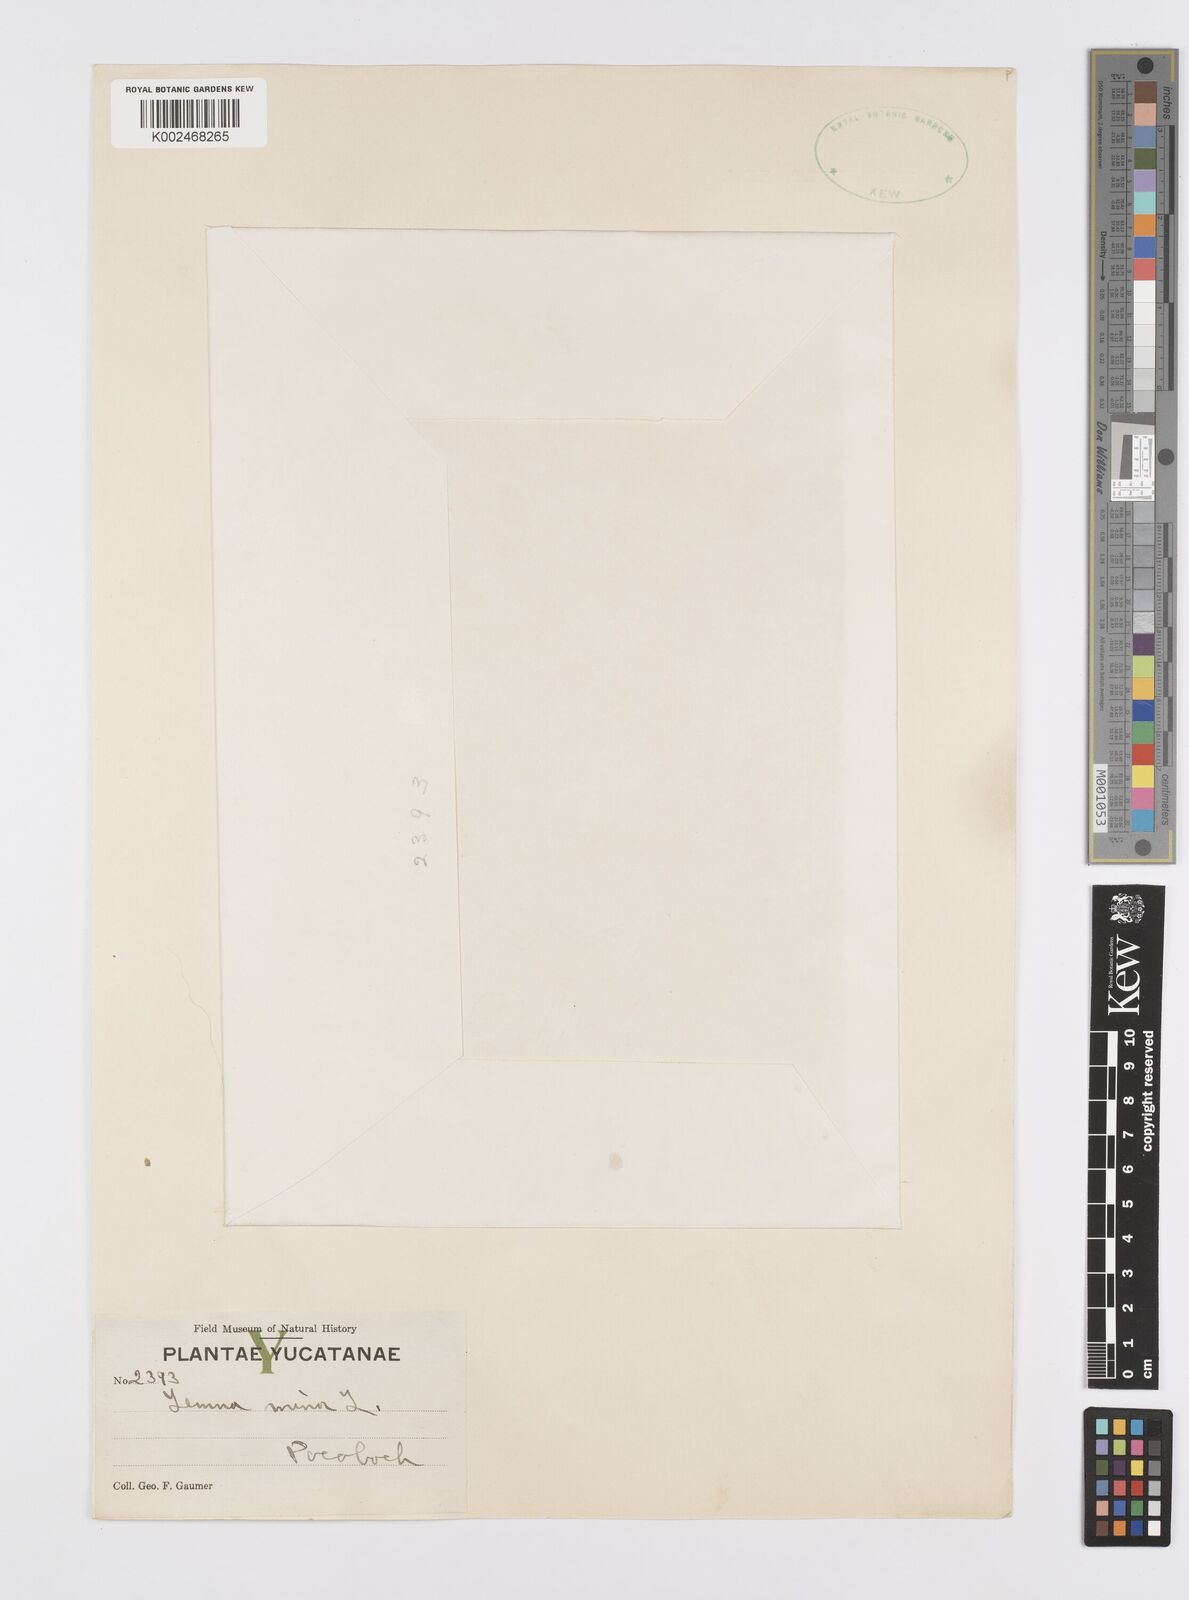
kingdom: Plantae
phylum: Tracheophyta
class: Liliopsida
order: Alismatales
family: Araceae
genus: Lemna
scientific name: Lemna minor
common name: Common duckweed
